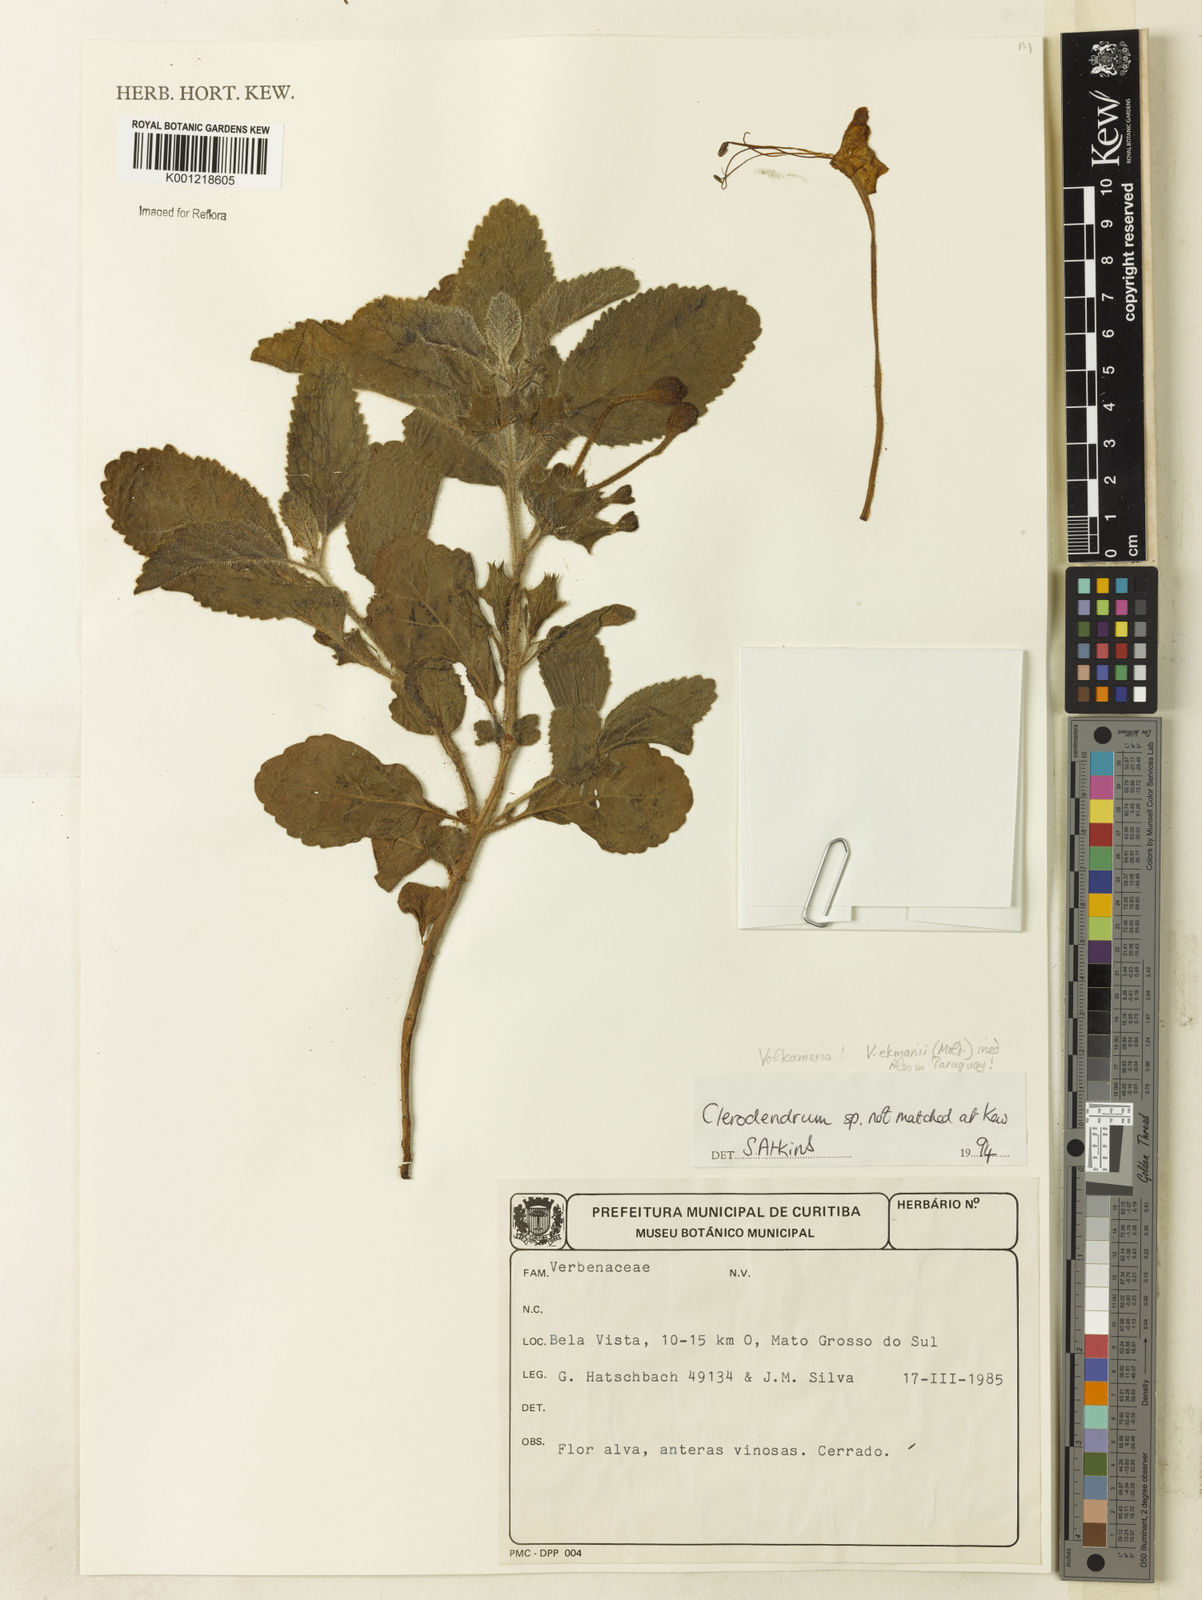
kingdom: Plantae
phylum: Tracheophyta
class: Magnoliopsida
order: Lamiales
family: Lamiaceae
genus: Clerodendrum
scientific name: Clerodendrum ekmanii
